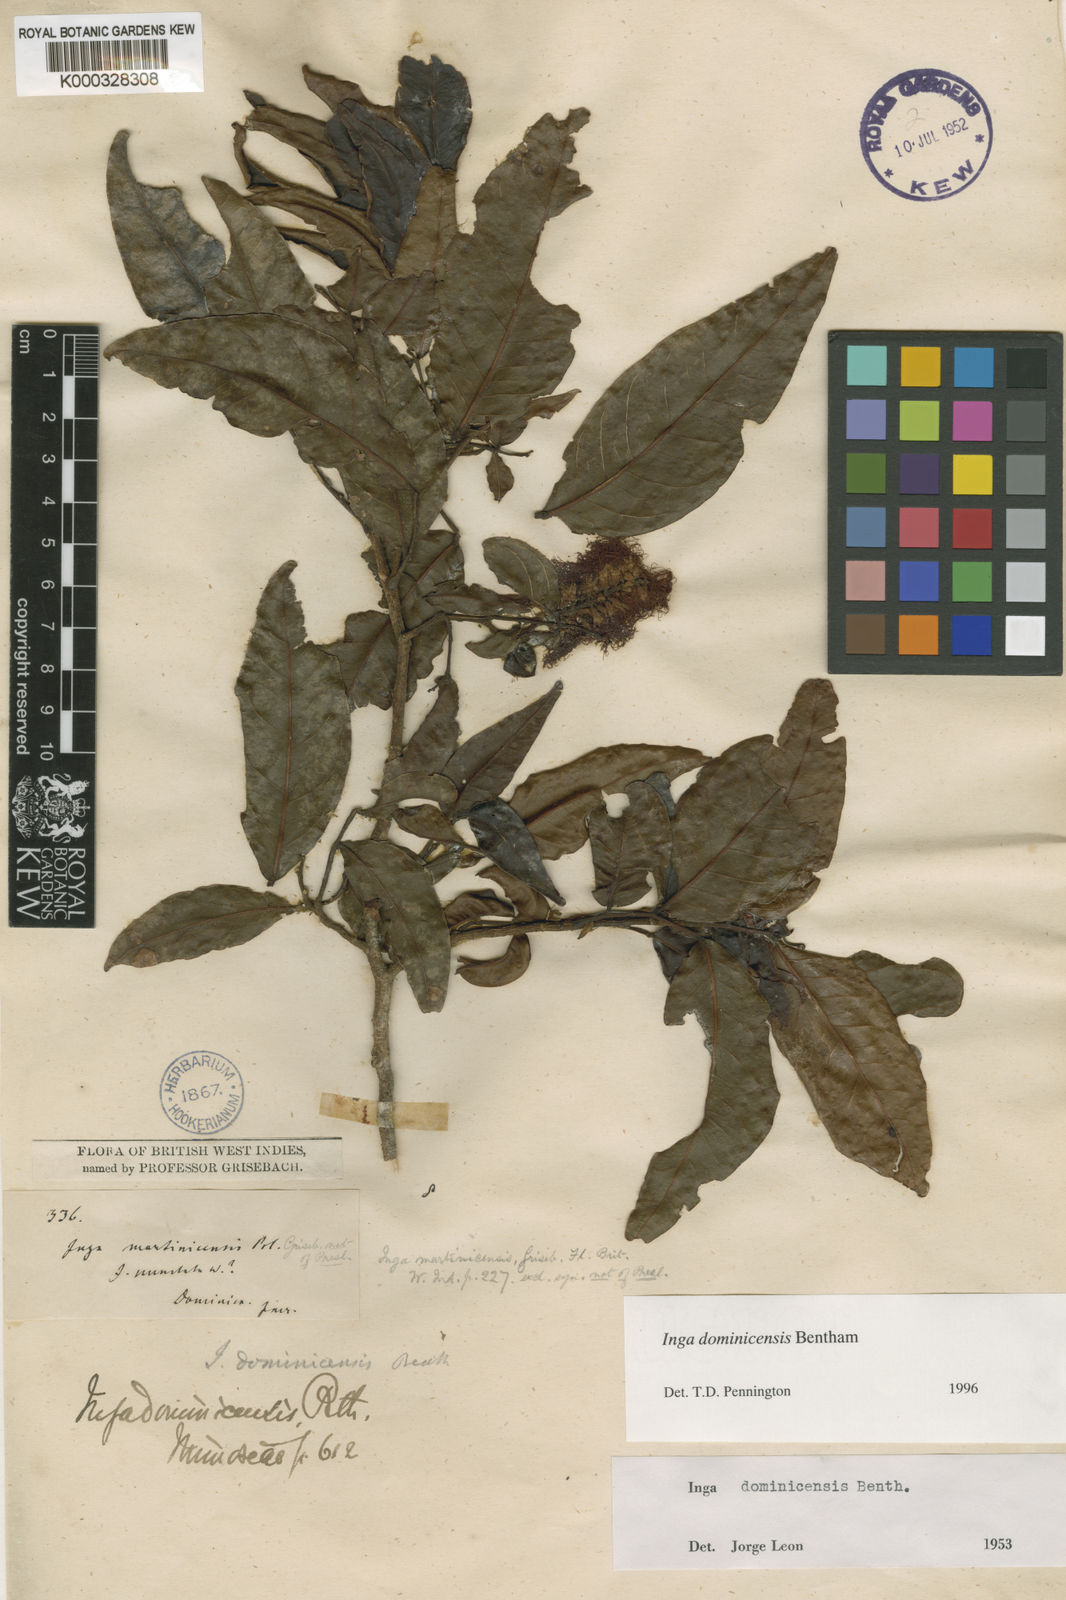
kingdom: Plantae
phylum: Tracheophyta
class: Magnoliopsida
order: Fabales
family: Fabaceae
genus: Inga
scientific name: Inga dominicensis
